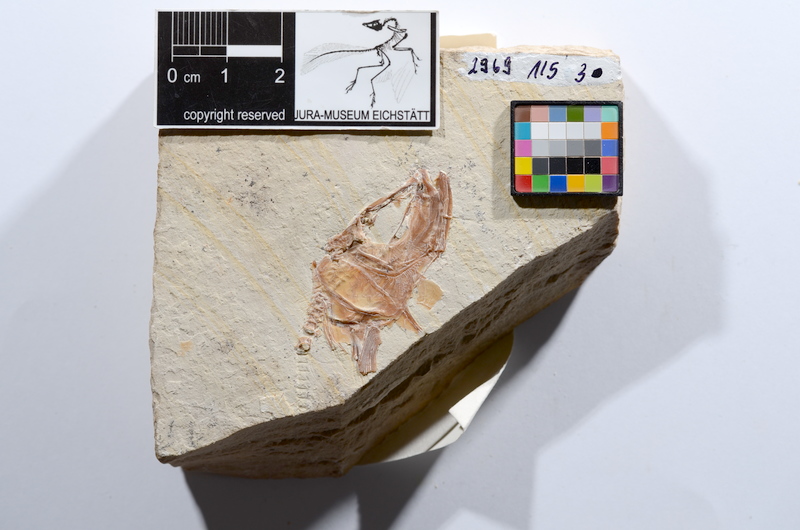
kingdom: Animalia
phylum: Chordata
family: Ascalaboidae
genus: Tharsis
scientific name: Tharsis dubius
